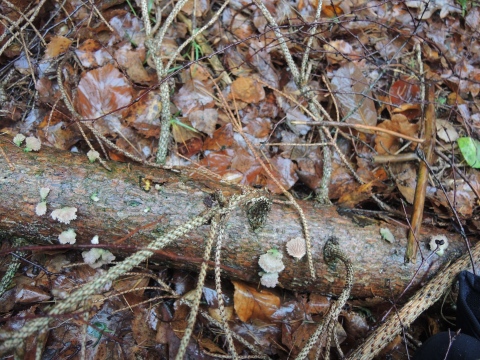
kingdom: Fungi
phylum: Basidiomycota
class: Agaricomycetes
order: Agaricales
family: Schizophyllaceae
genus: Schizophyllum
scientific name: Schizophyllum commune
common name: kløvblad
